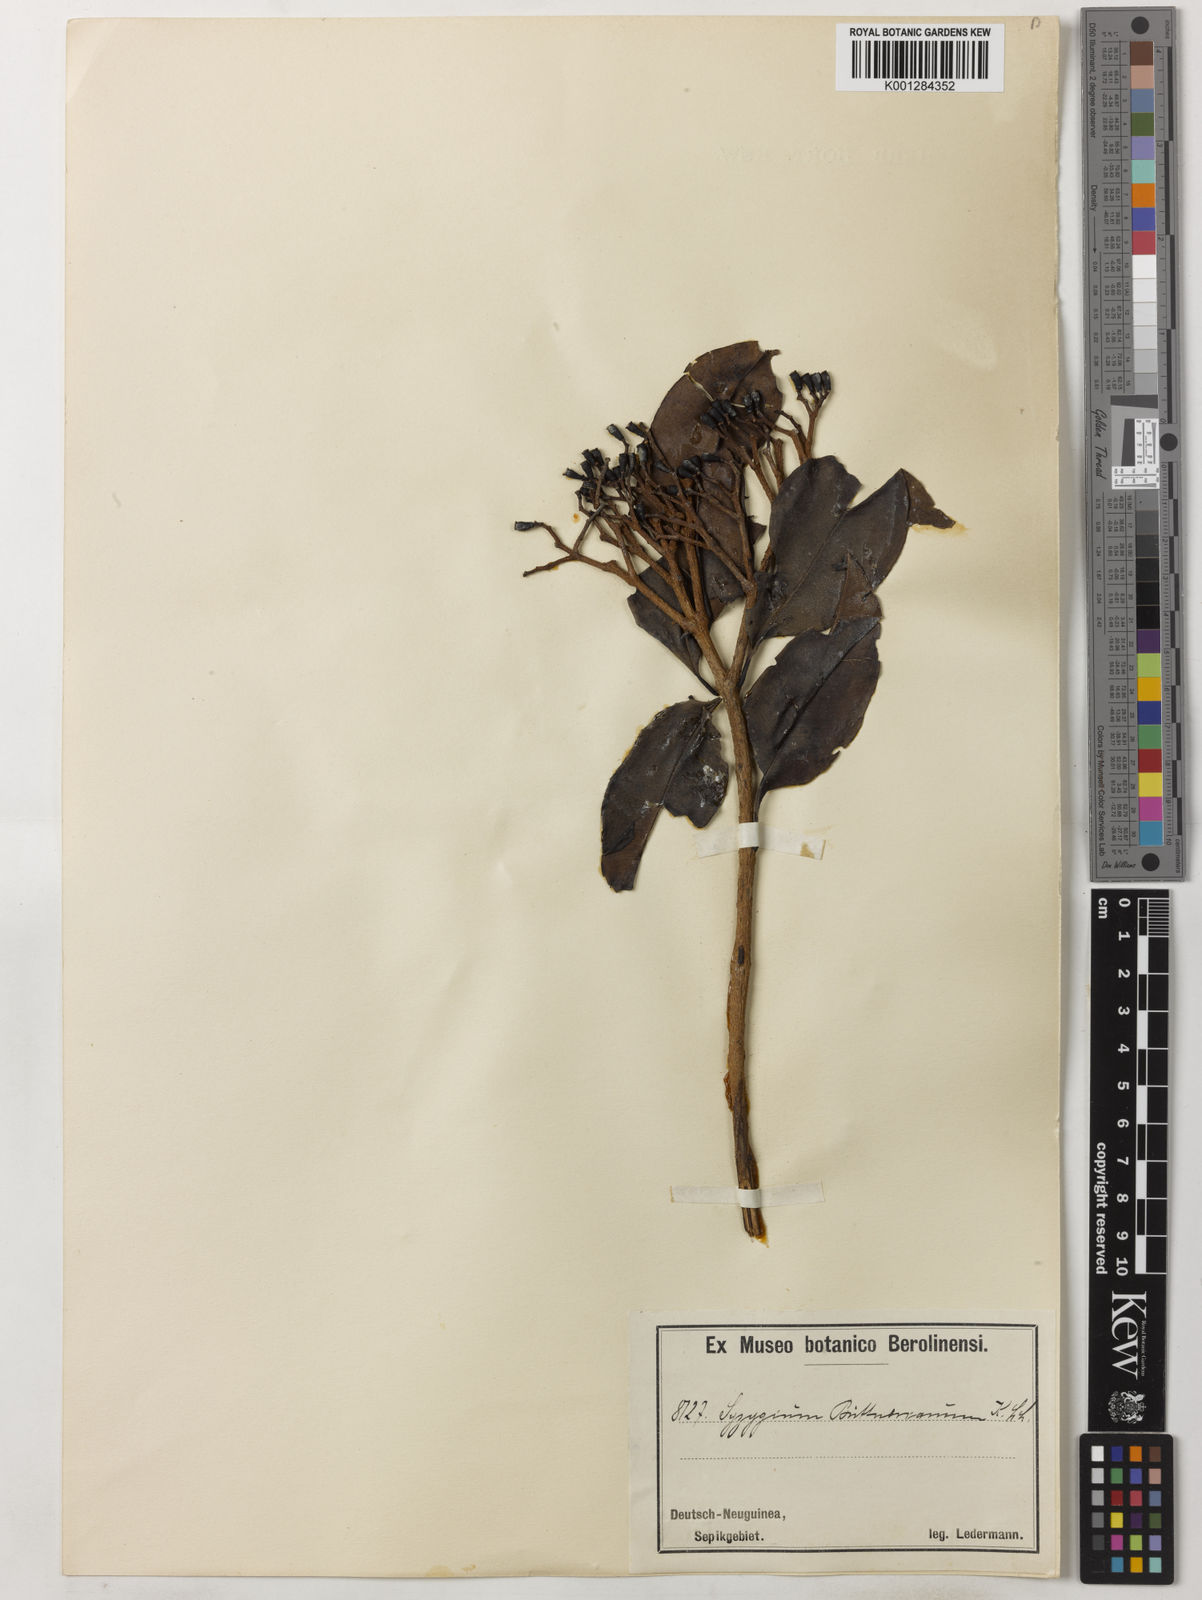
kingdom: Plantae
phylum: Tracheophyta
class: Magnoliopsida
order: Myrtales
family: Myrtaceae
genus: Syzygium
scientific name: Syzygium buettnerianum
